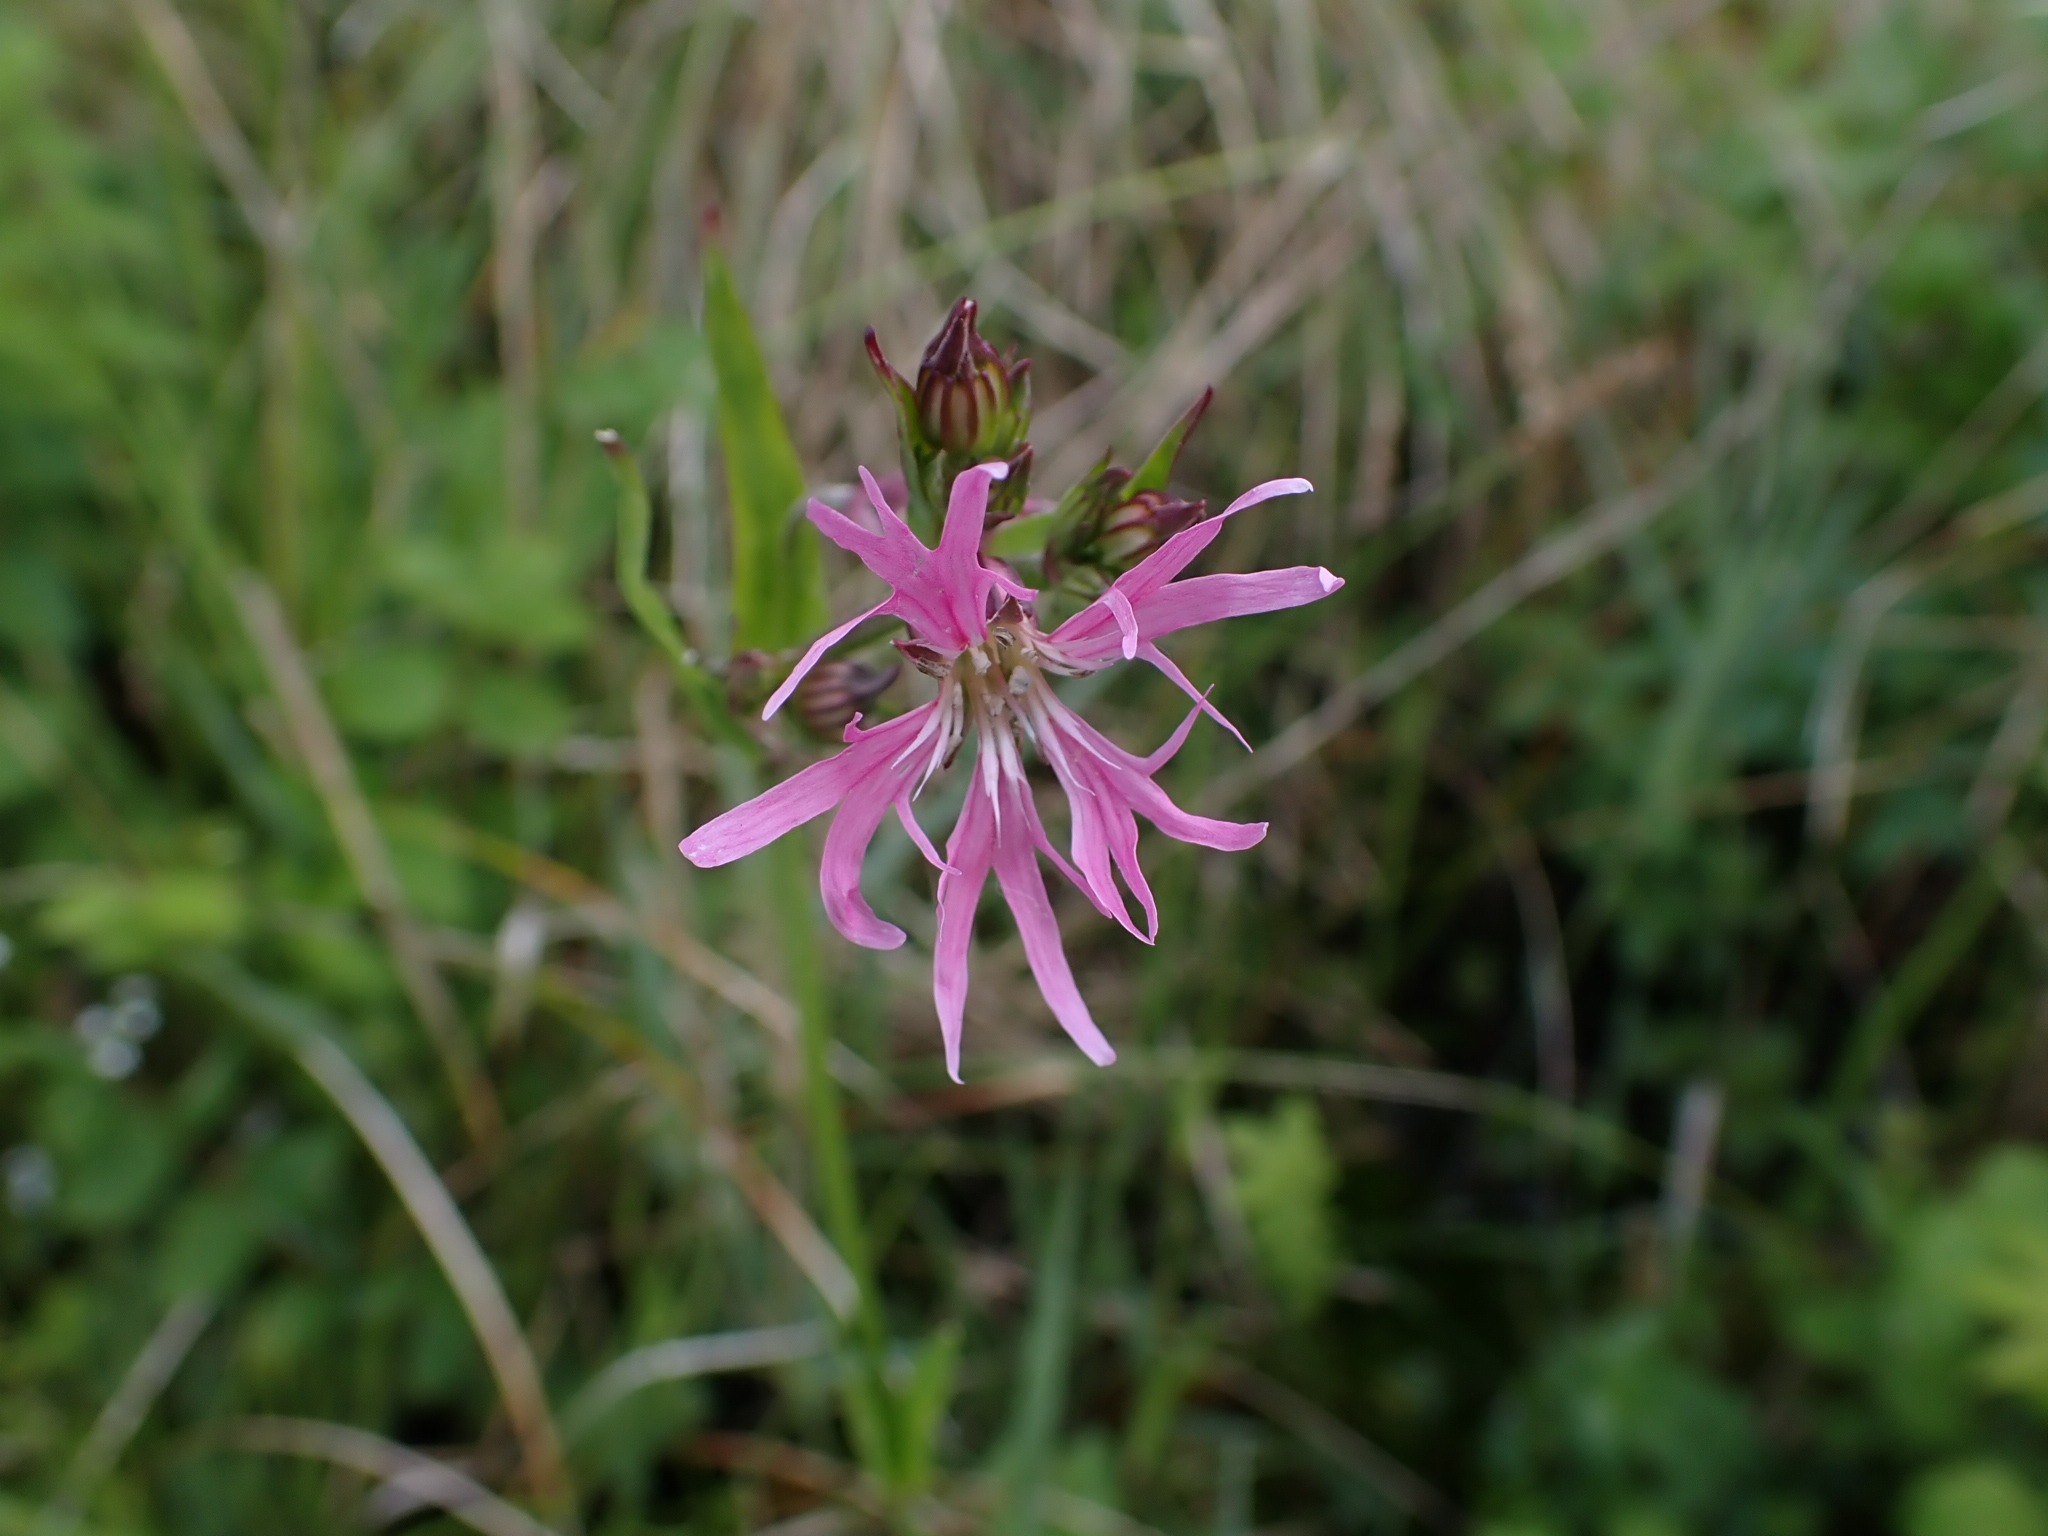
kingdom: Plantae
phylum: Tracheophyta
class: Magnoliopsida
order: Caryophyllales
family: Caryophyllaceae
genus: Silene
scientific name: Silene flos-cuculi
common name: Trævlekrone
